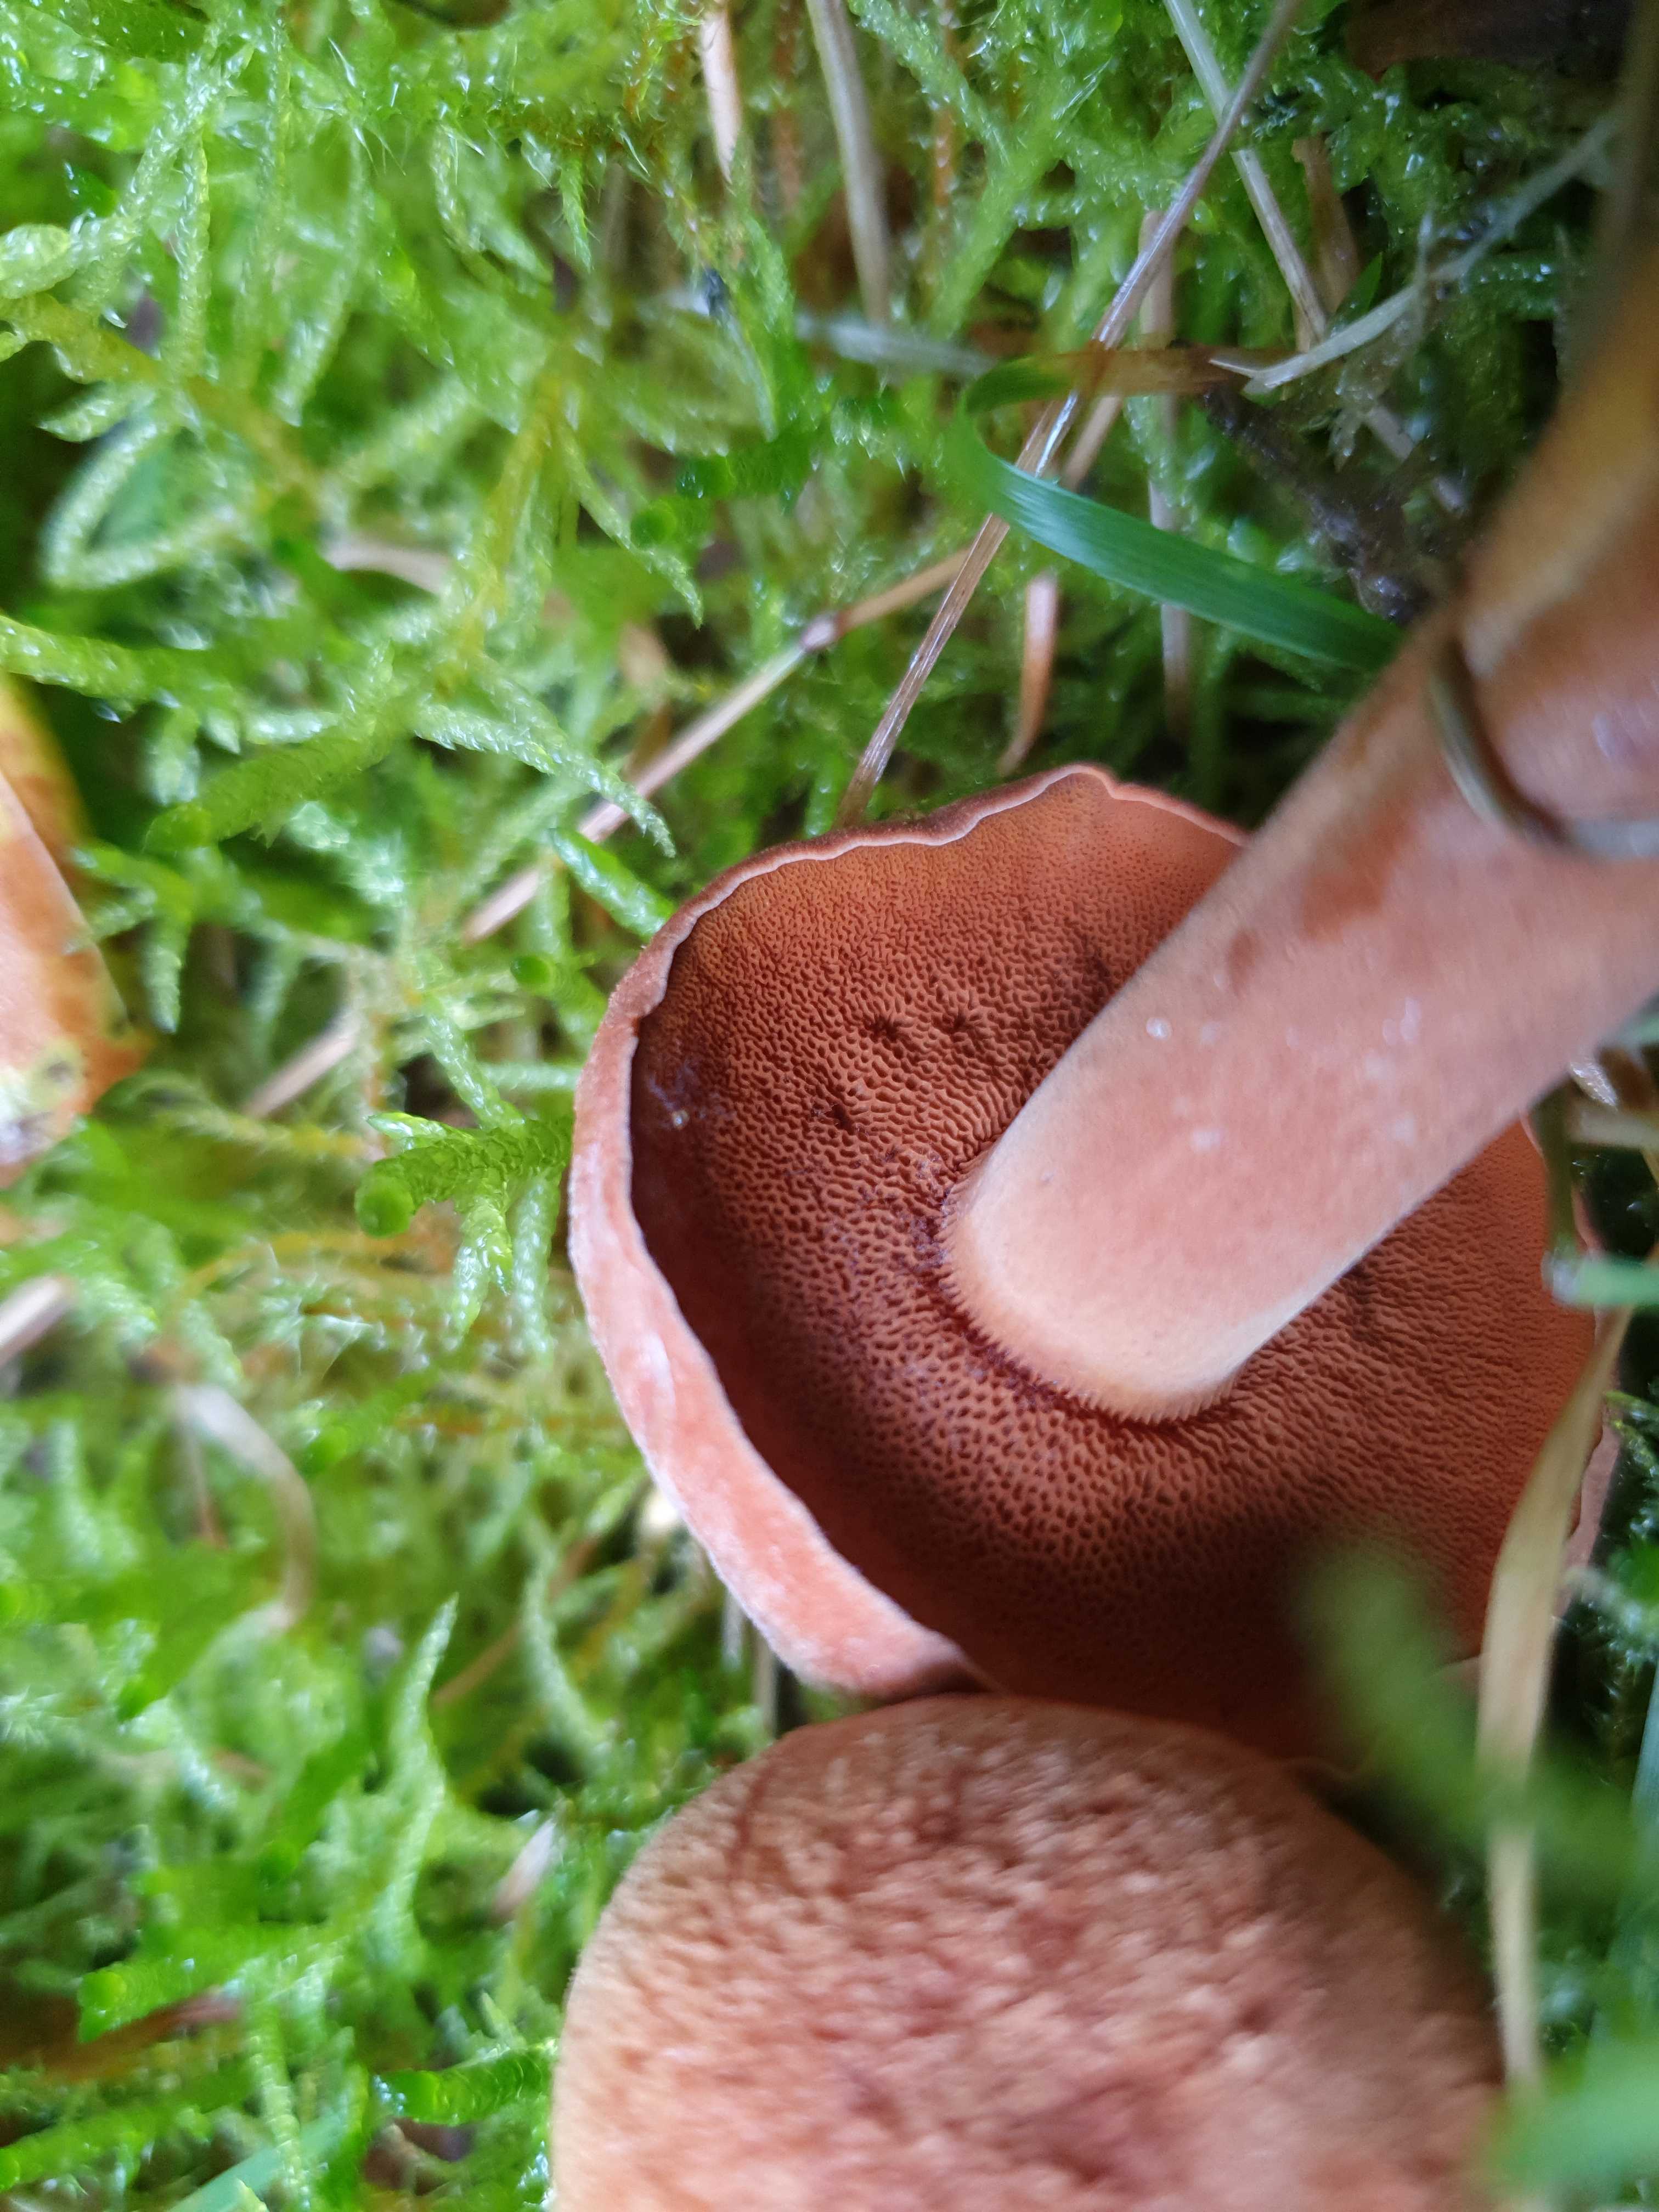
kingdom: Fungi
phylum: Basidiomycota
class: Agaricomycetes
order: Boletales
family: Boletaceae
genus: Chalciporus
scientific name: Chalciporus piperatus
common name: peberrørhat
